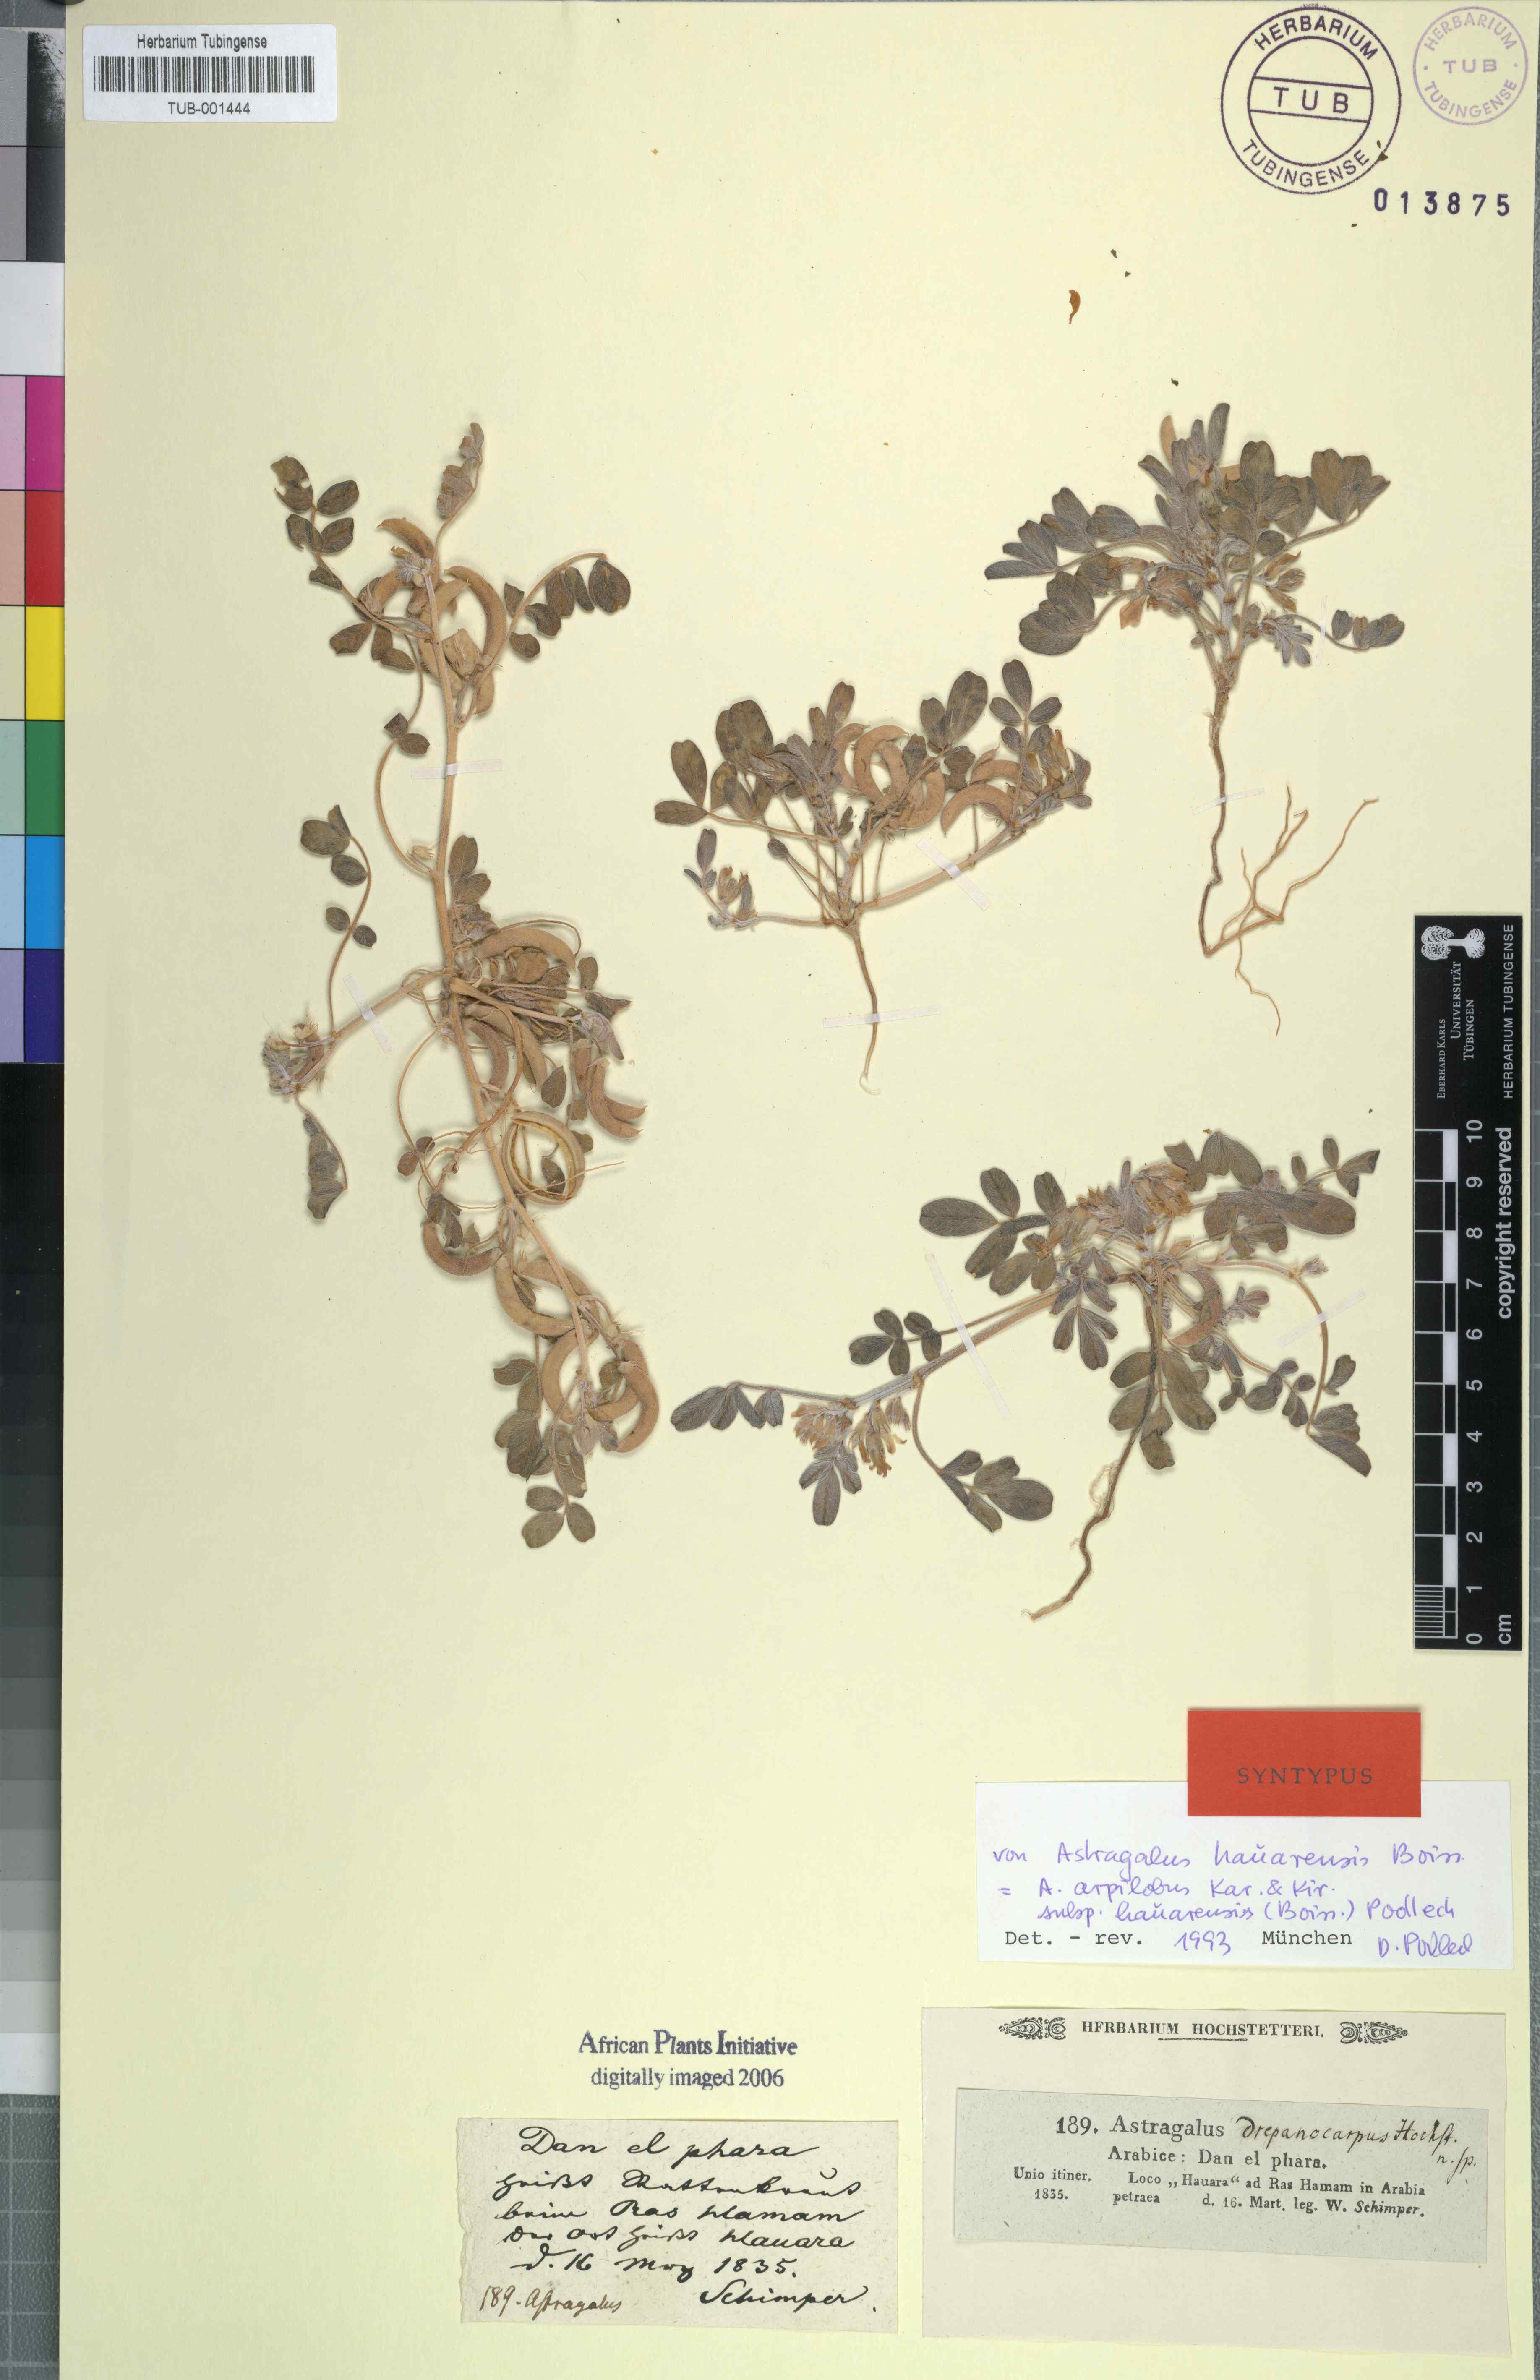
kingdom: Plantae
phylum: Tracheophyta
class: Magnoliopsida
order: Fabales
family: Fabaceae
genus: Astragalus
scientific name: Astragalus arpilobus
